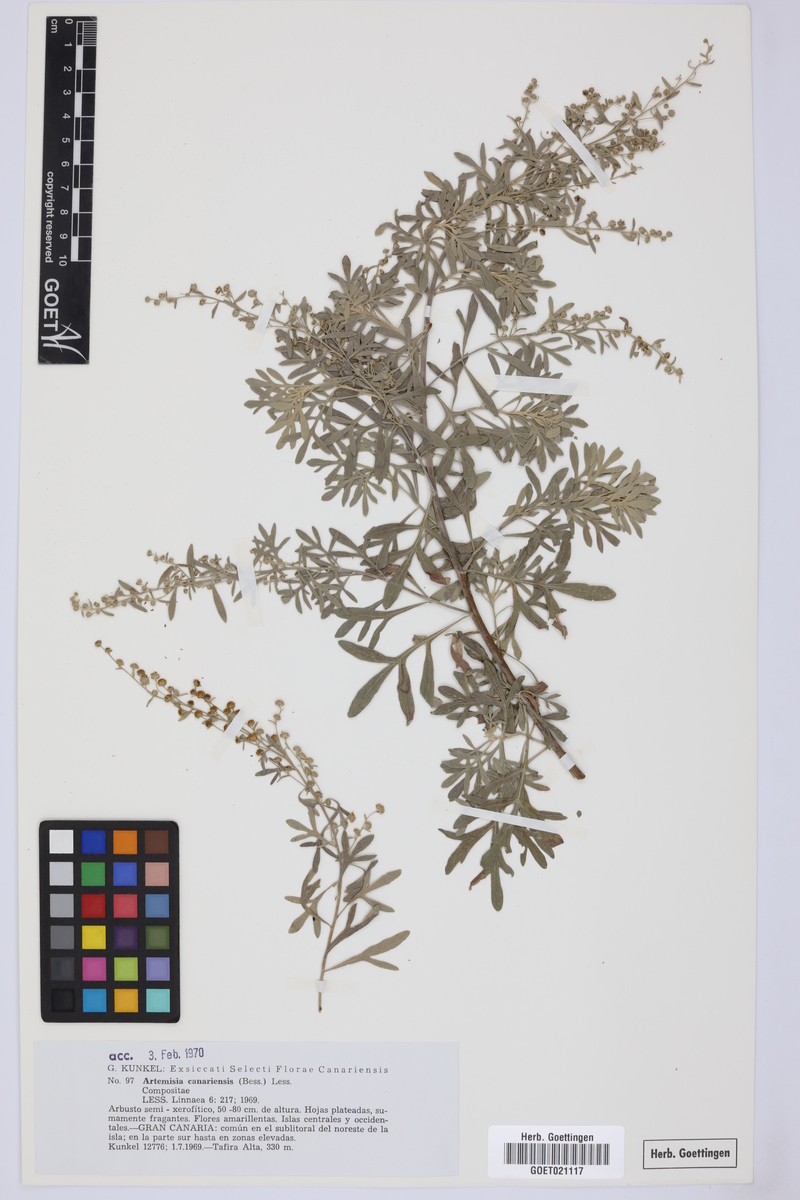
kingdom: Plantae
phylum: Tracheophyta
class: Magnoliopsida
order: Asterales
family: Asteraceae
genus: Artemisia
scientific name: Artemisia thuscula
